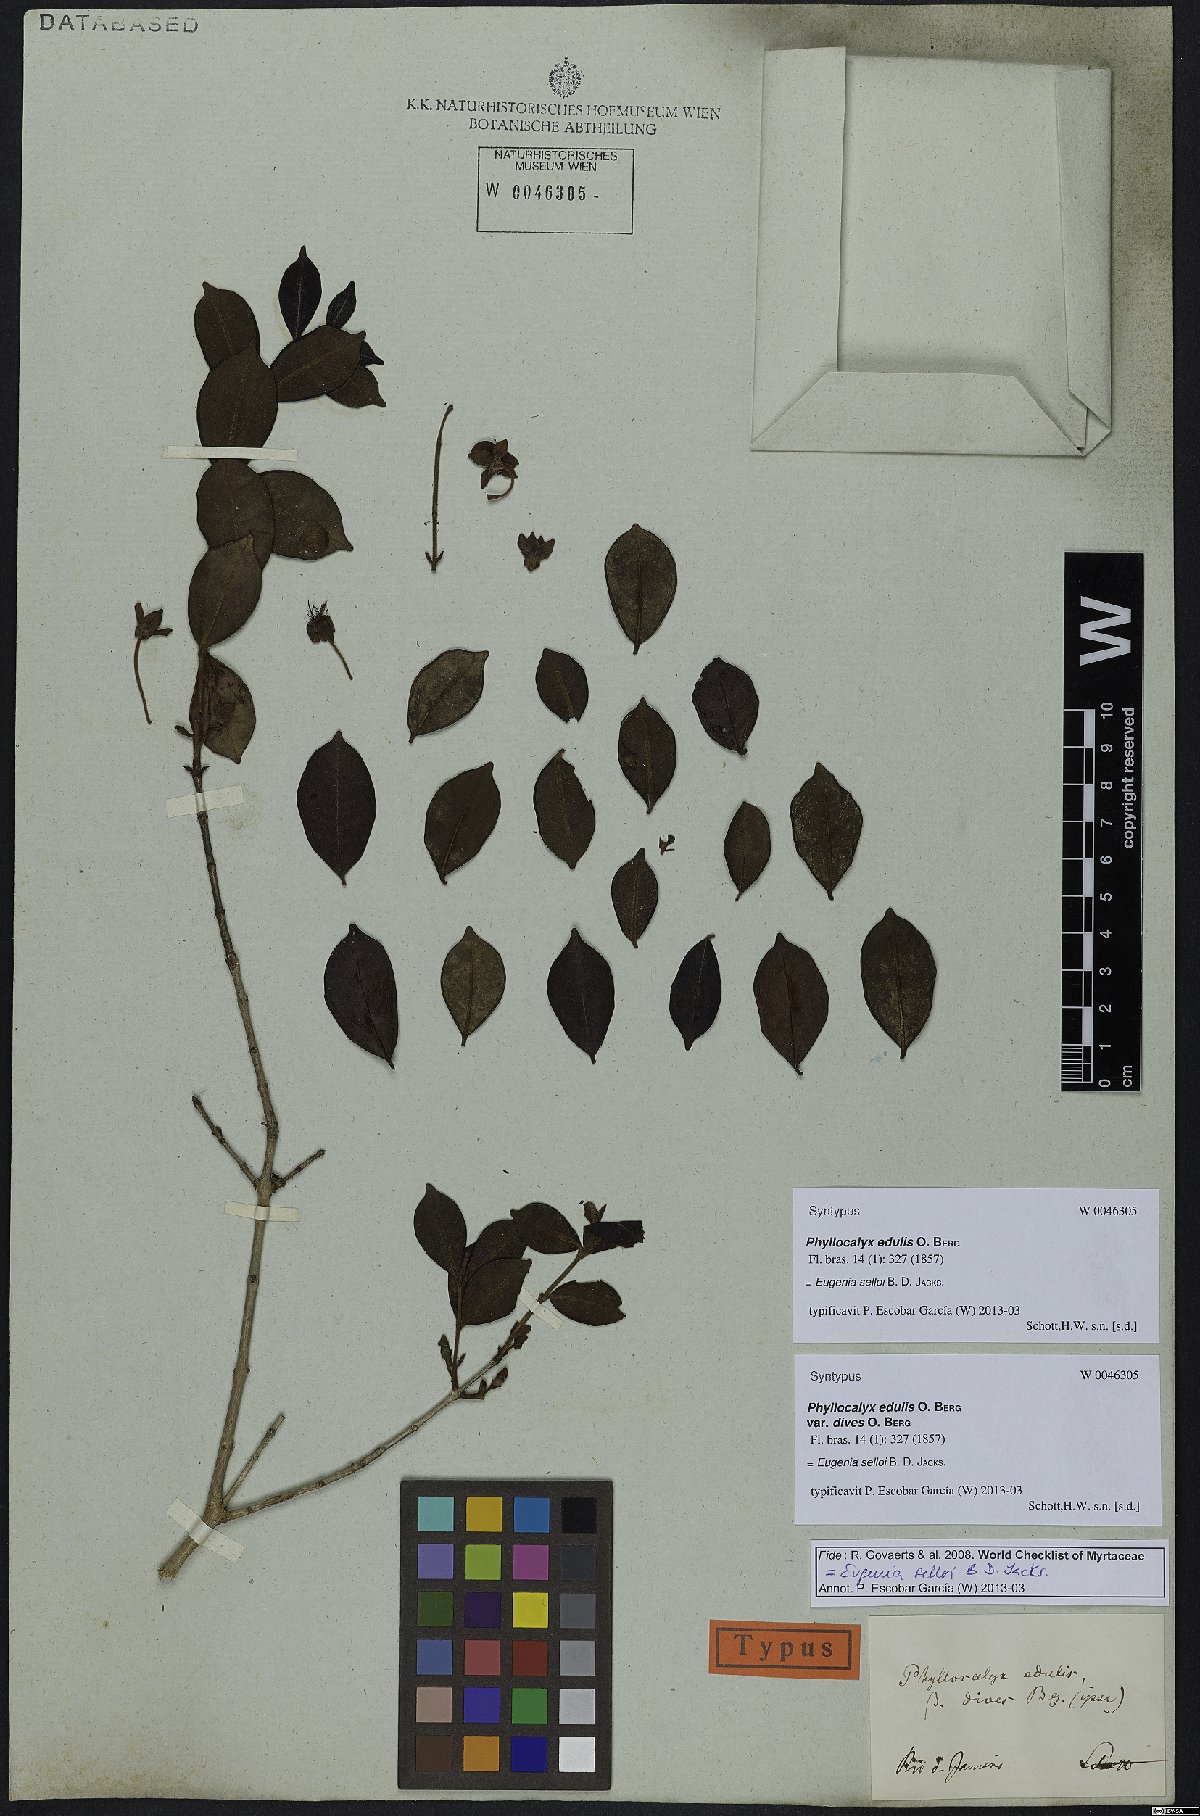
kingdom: Plantae
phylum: Tracheophyta
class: Magnoliopsida
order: Myrtales
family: Myrtaceae
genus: Eugenia
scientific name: Eugenia selloi
